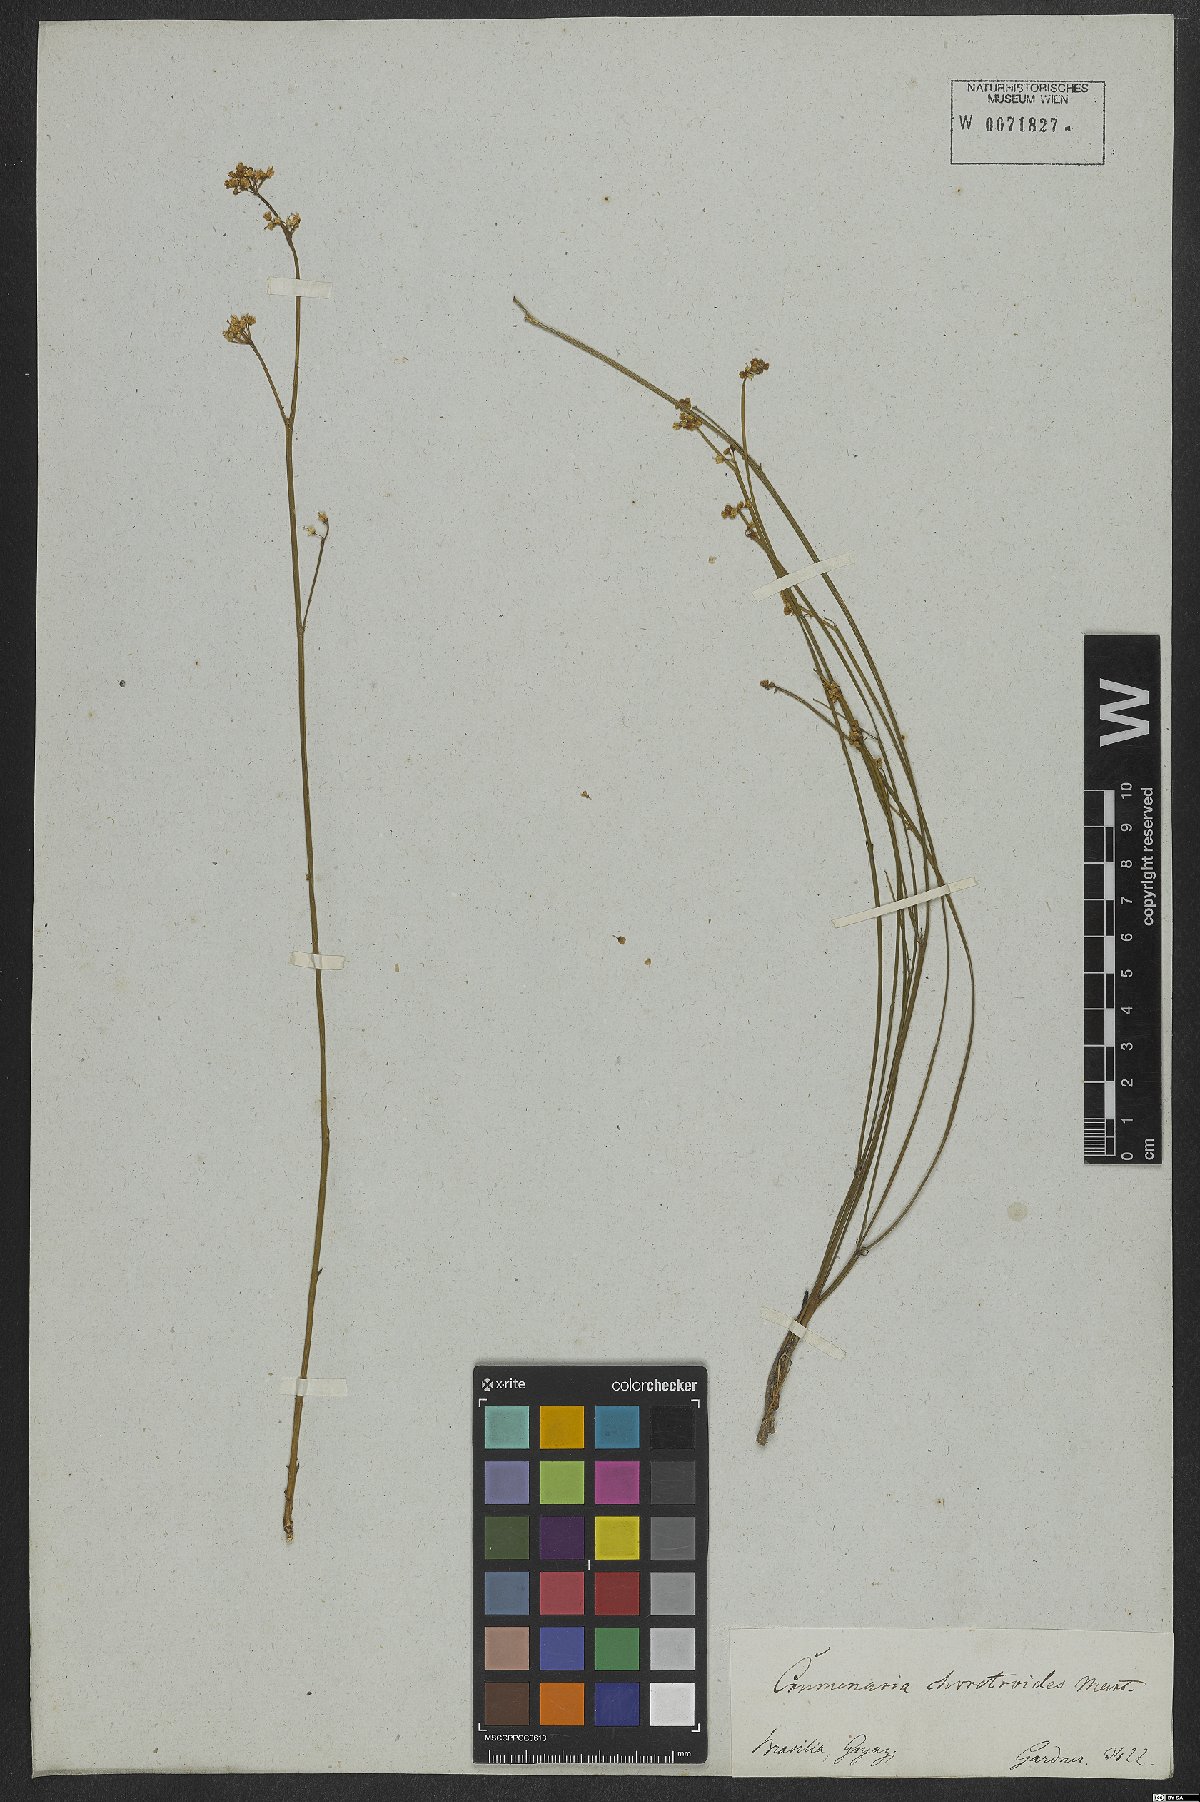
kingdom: Plantae
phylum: Tracheophyta
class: Magnoliopsida
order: Rosales
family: Rhamnaceae
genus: Crumenaria
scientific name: Crumenaria choretroides
